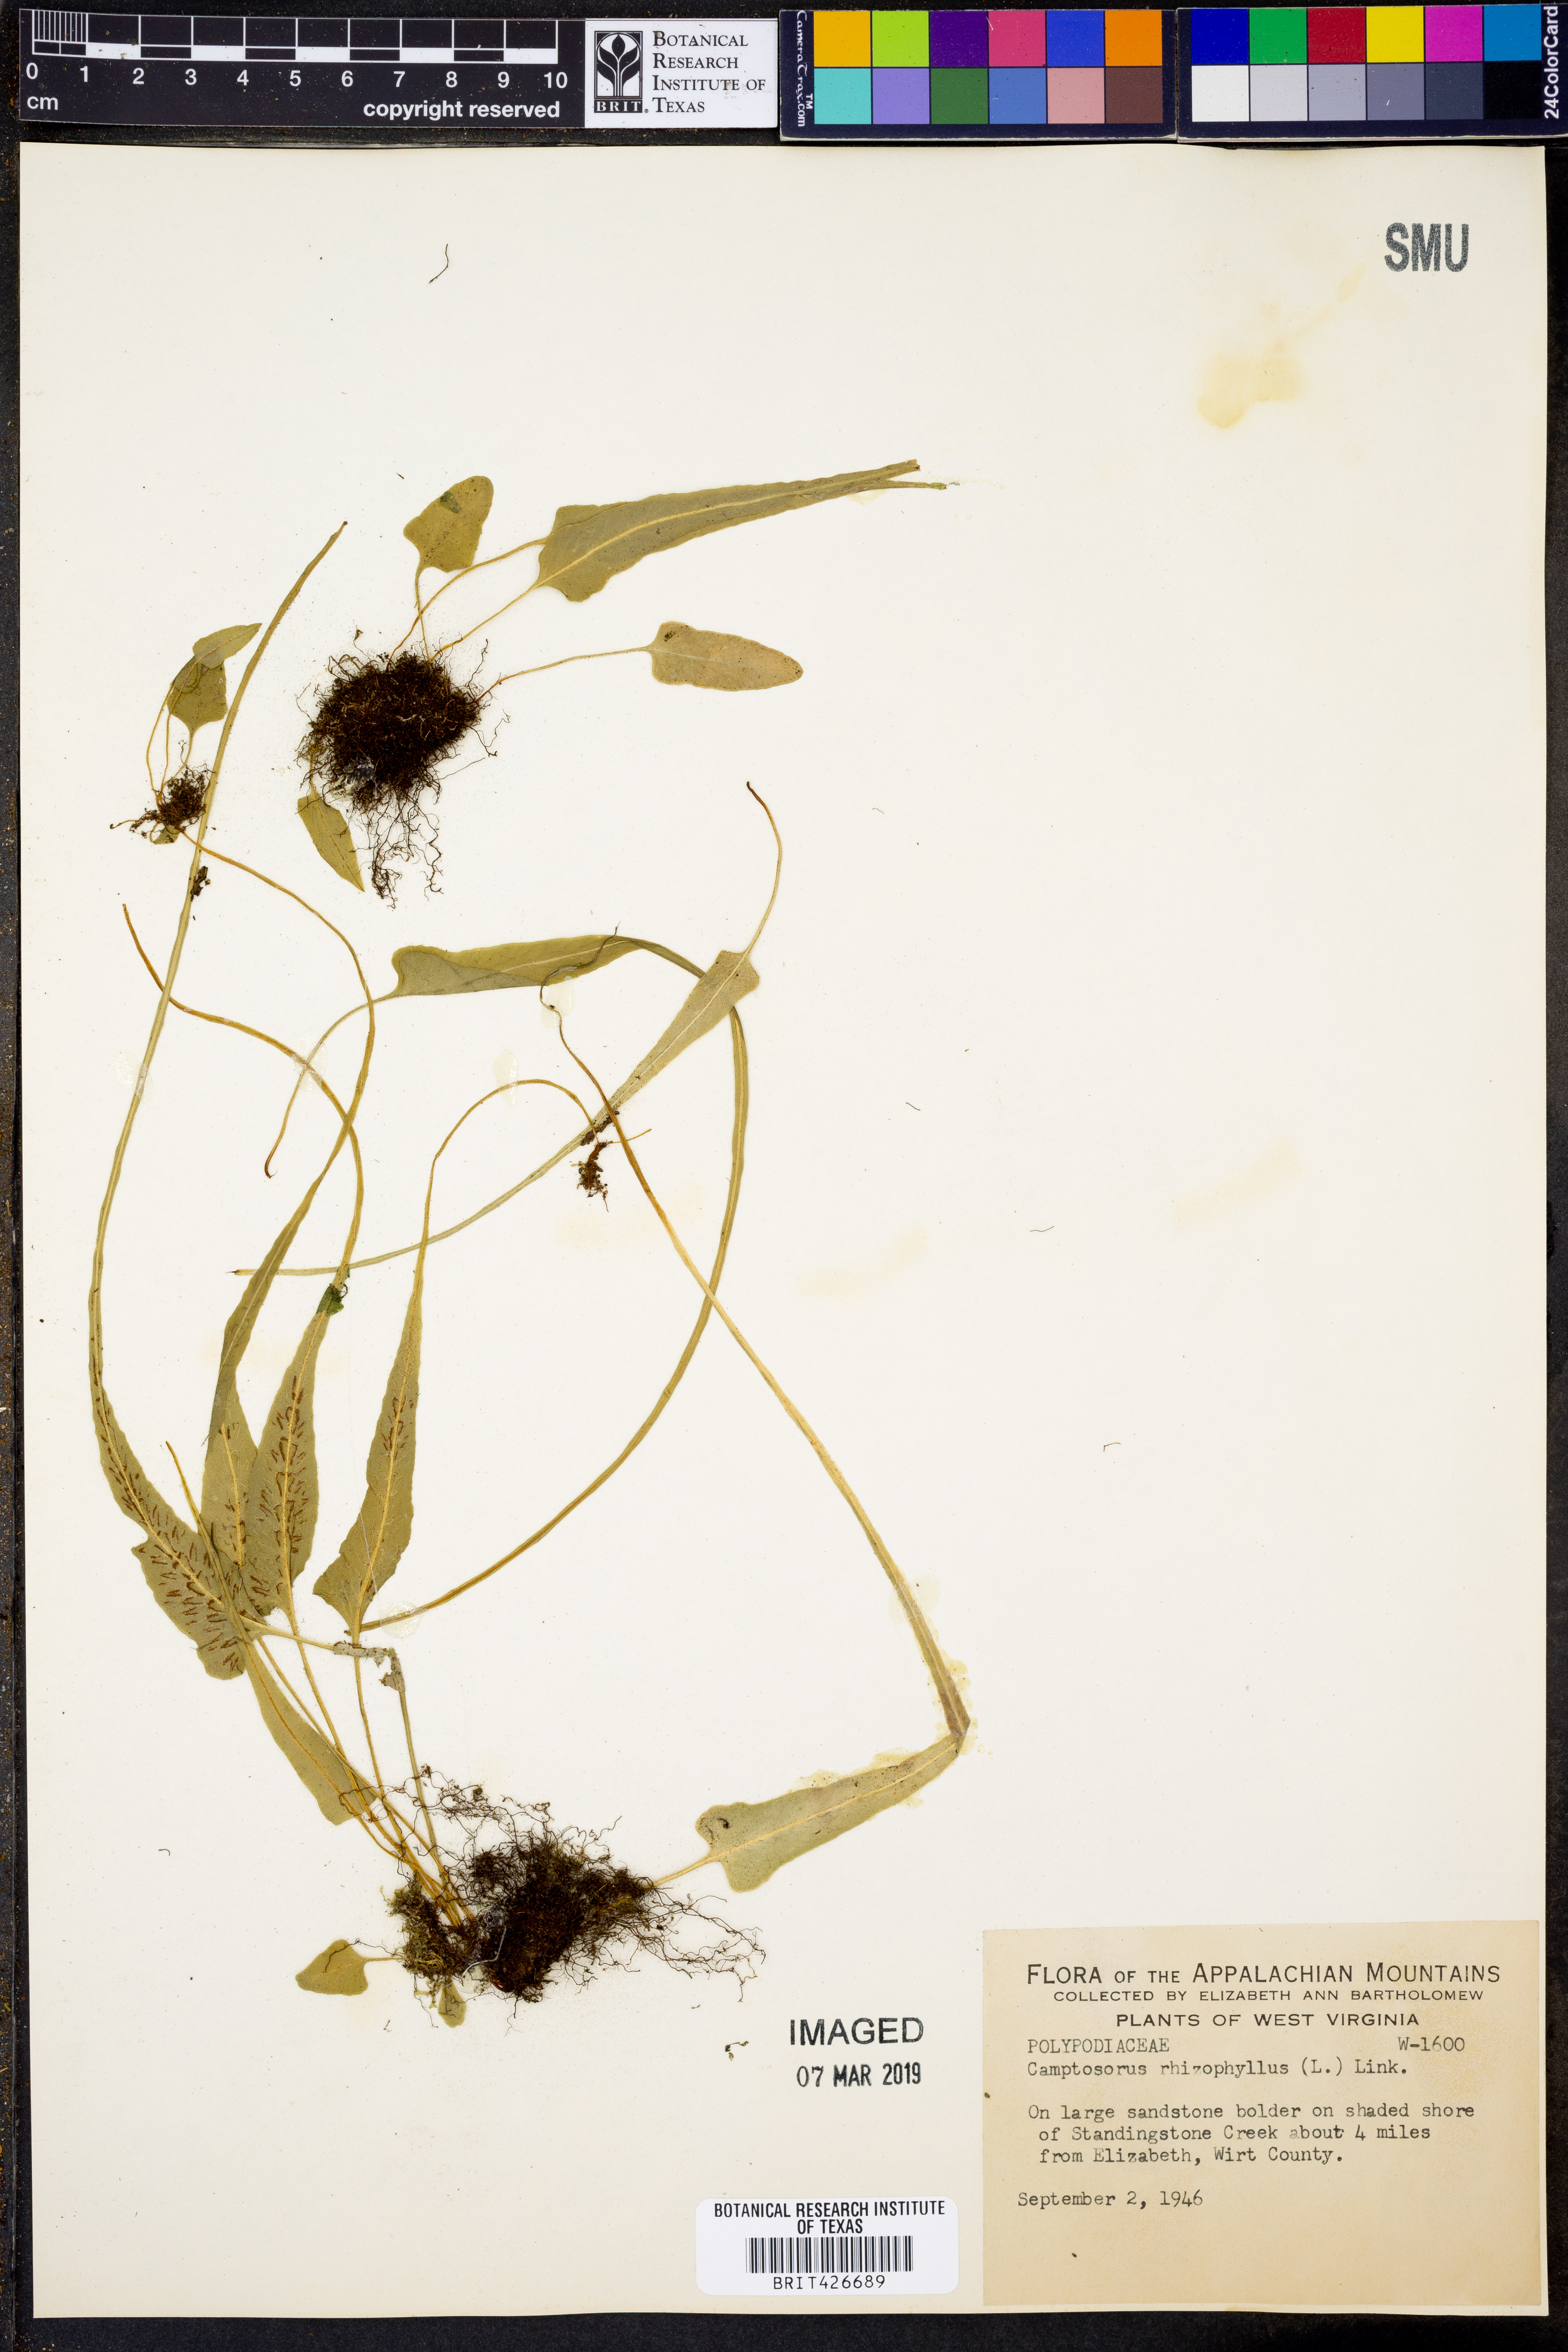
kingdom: Plantae
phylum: Tracheophyta
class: Polypodiopsida
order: Polypodiales
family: Aspleniaceae
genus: Asplenium
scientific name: Asplenium rhizophyllum
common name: Walking fern
